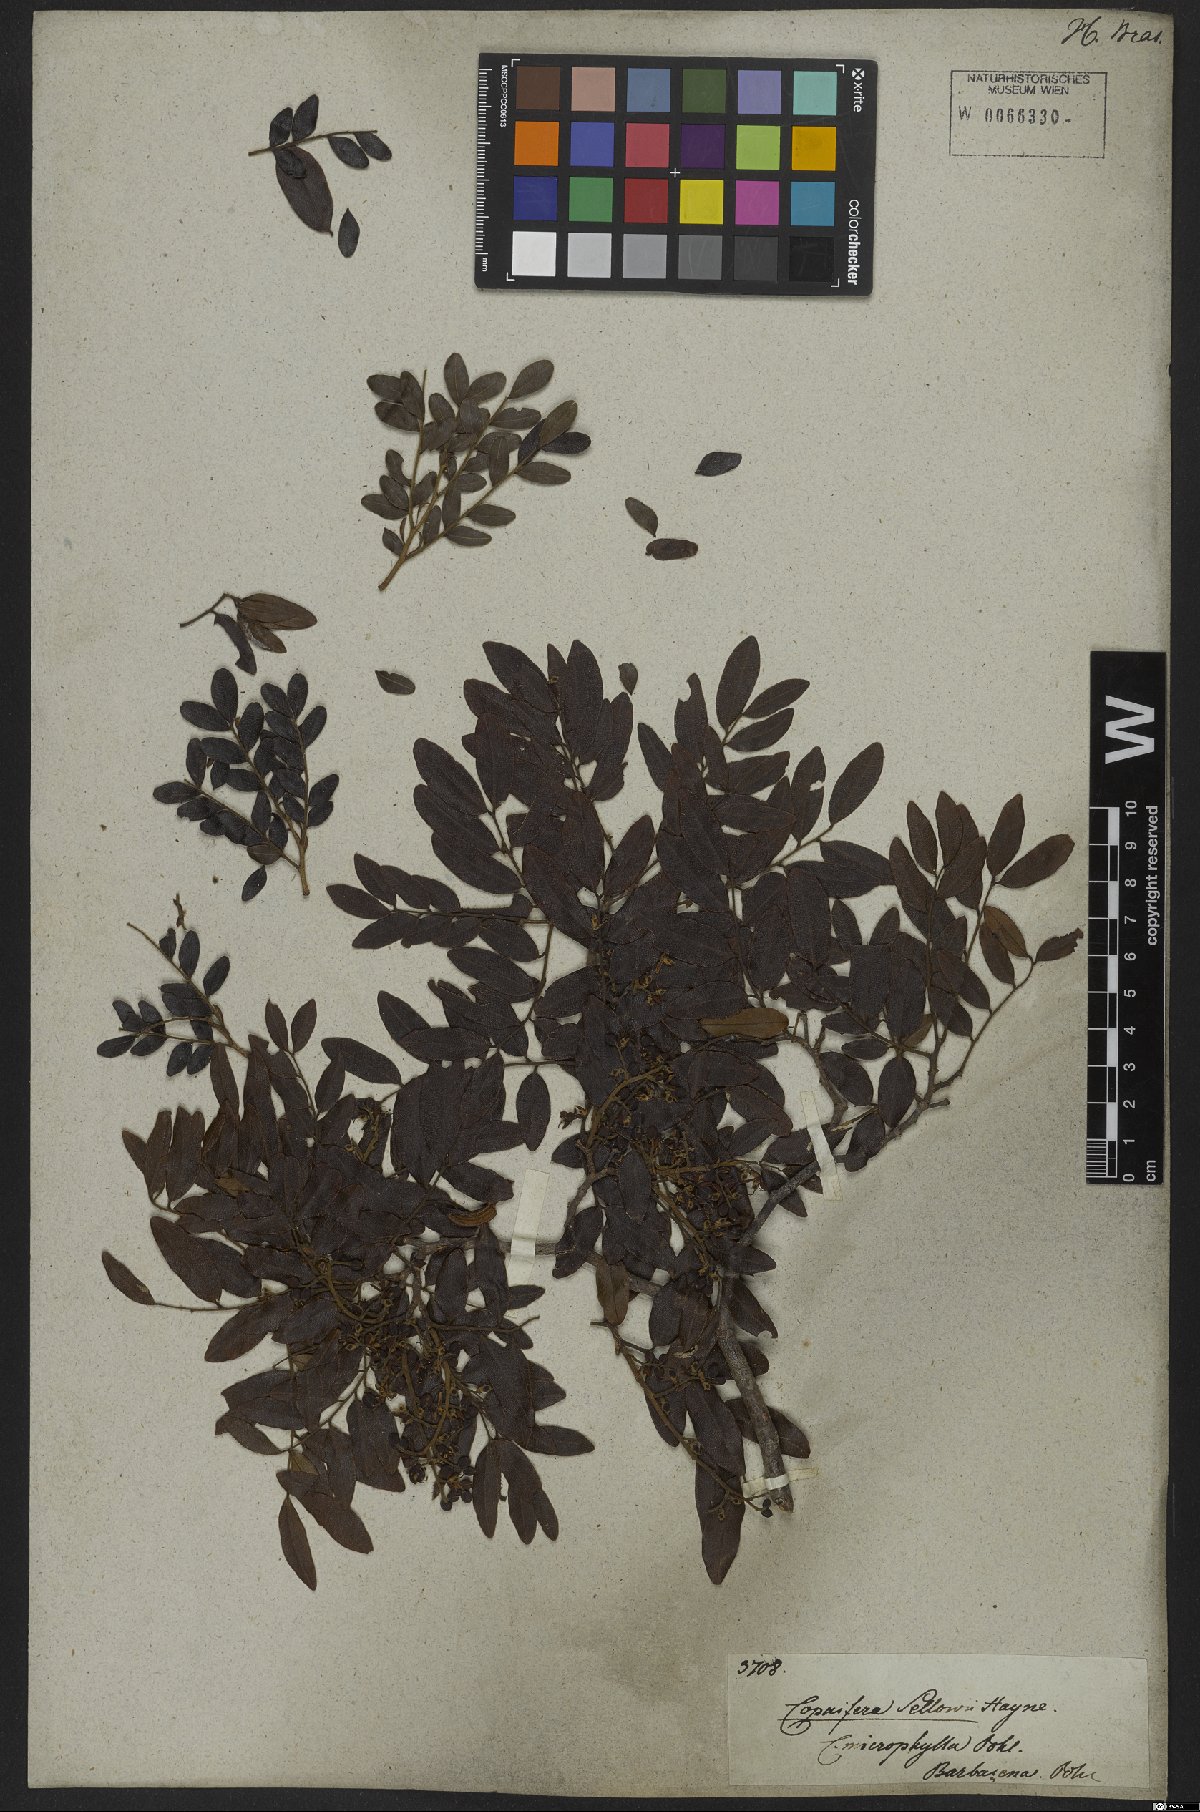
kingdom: Plantae
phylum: Tracheophyta
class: Magnoliopsida
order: Fabales
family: Fabaceae
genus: Copaifera
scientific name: Copaifera langsdorffii
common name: Brazilian diesel tree
